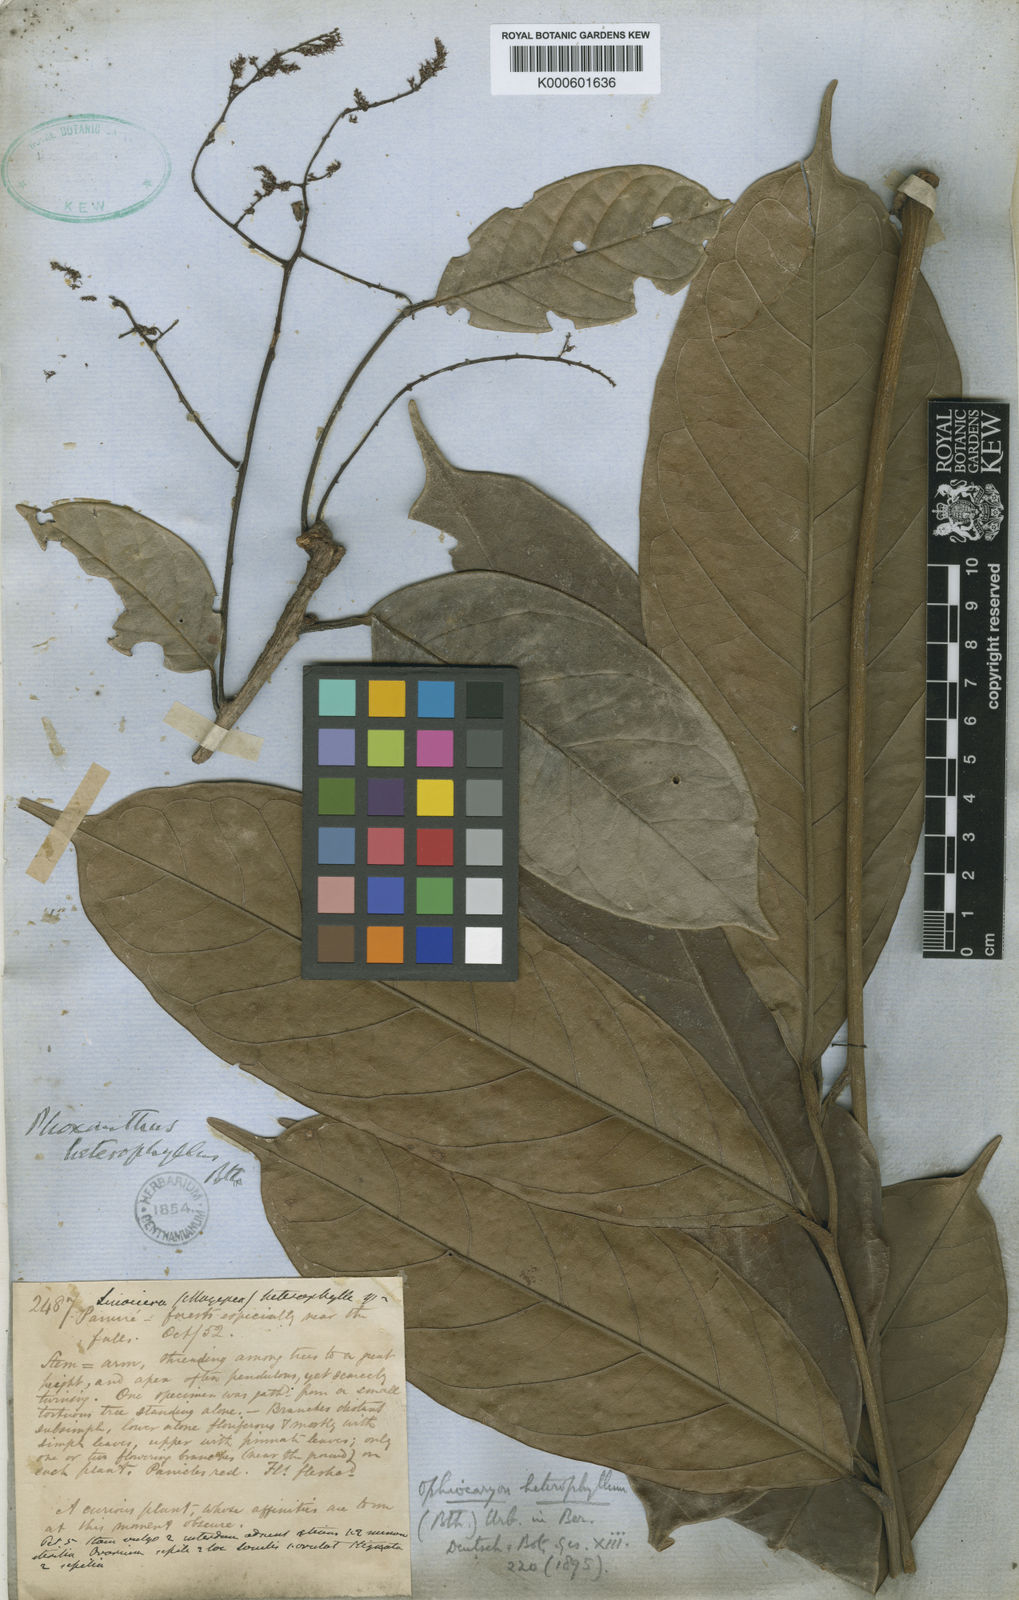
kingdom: Plantae
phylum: Tracheophyta
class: Magnoliopsida
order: Proteales
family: Sabiaceae
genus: Ophiocaryon
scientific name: Ophiocaryon heterophyllum
